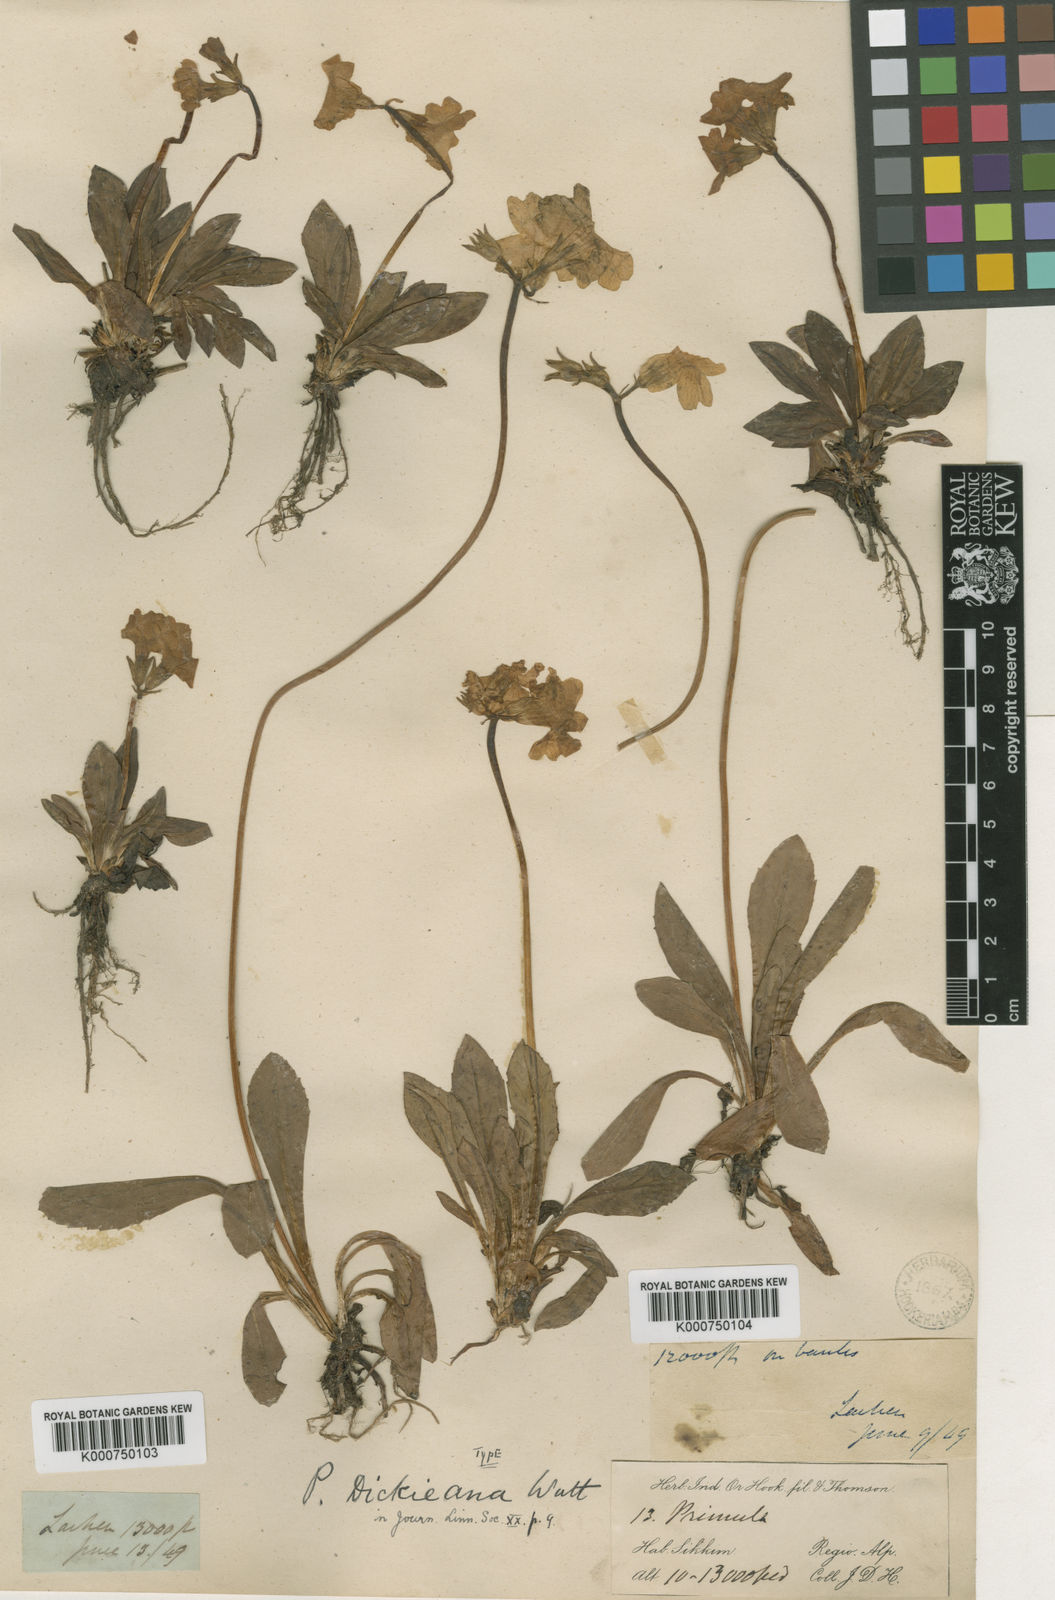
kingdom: Plantae
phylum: Tracheophyta
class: Magnoliopsida
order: Ericales
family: Primulaceae
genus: Primula
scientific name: Primula dickieana
